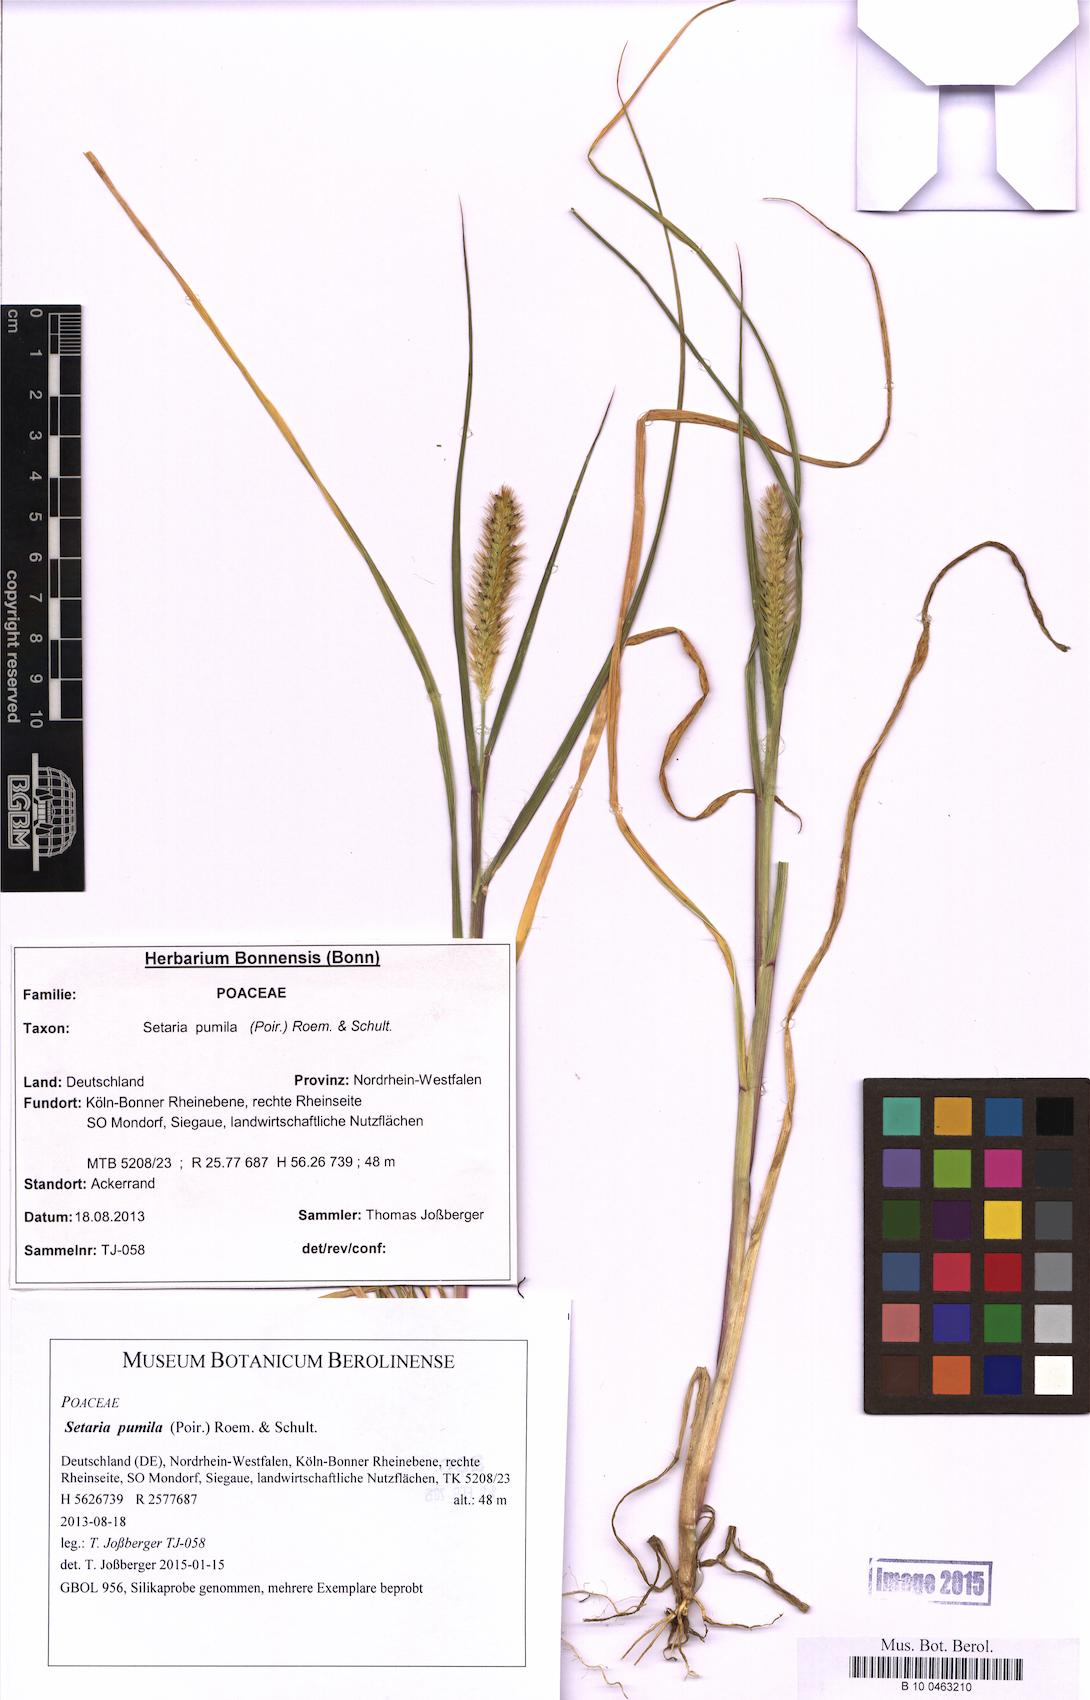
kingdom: Plantae
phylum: Tracheophyta
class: Liliopsida
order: Poales
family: Poaceae
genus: Setaria
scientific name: Setaria pumila
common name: Yellow bristle-grass
